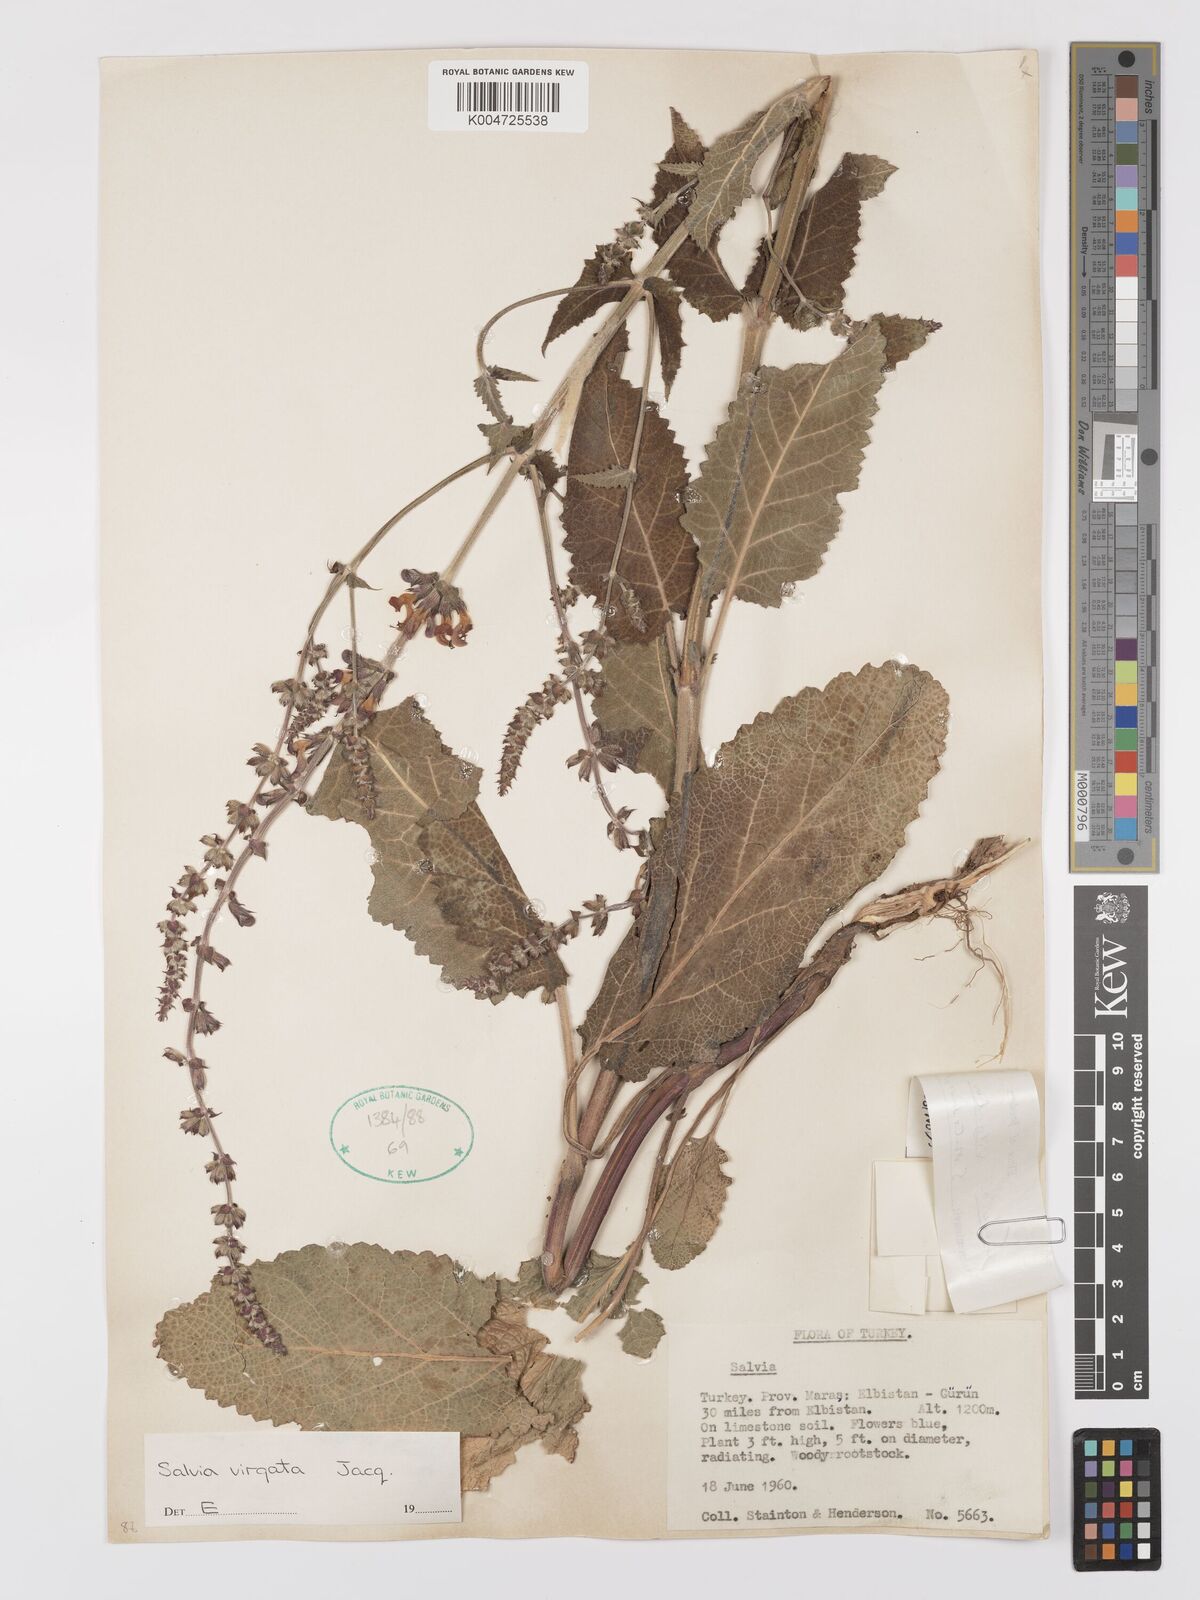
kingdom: Plantae
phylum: Tracheophyta
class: Magnoliopsida
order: Lamiales
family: Lamiaceae
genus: Salvia
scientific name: Salvia
